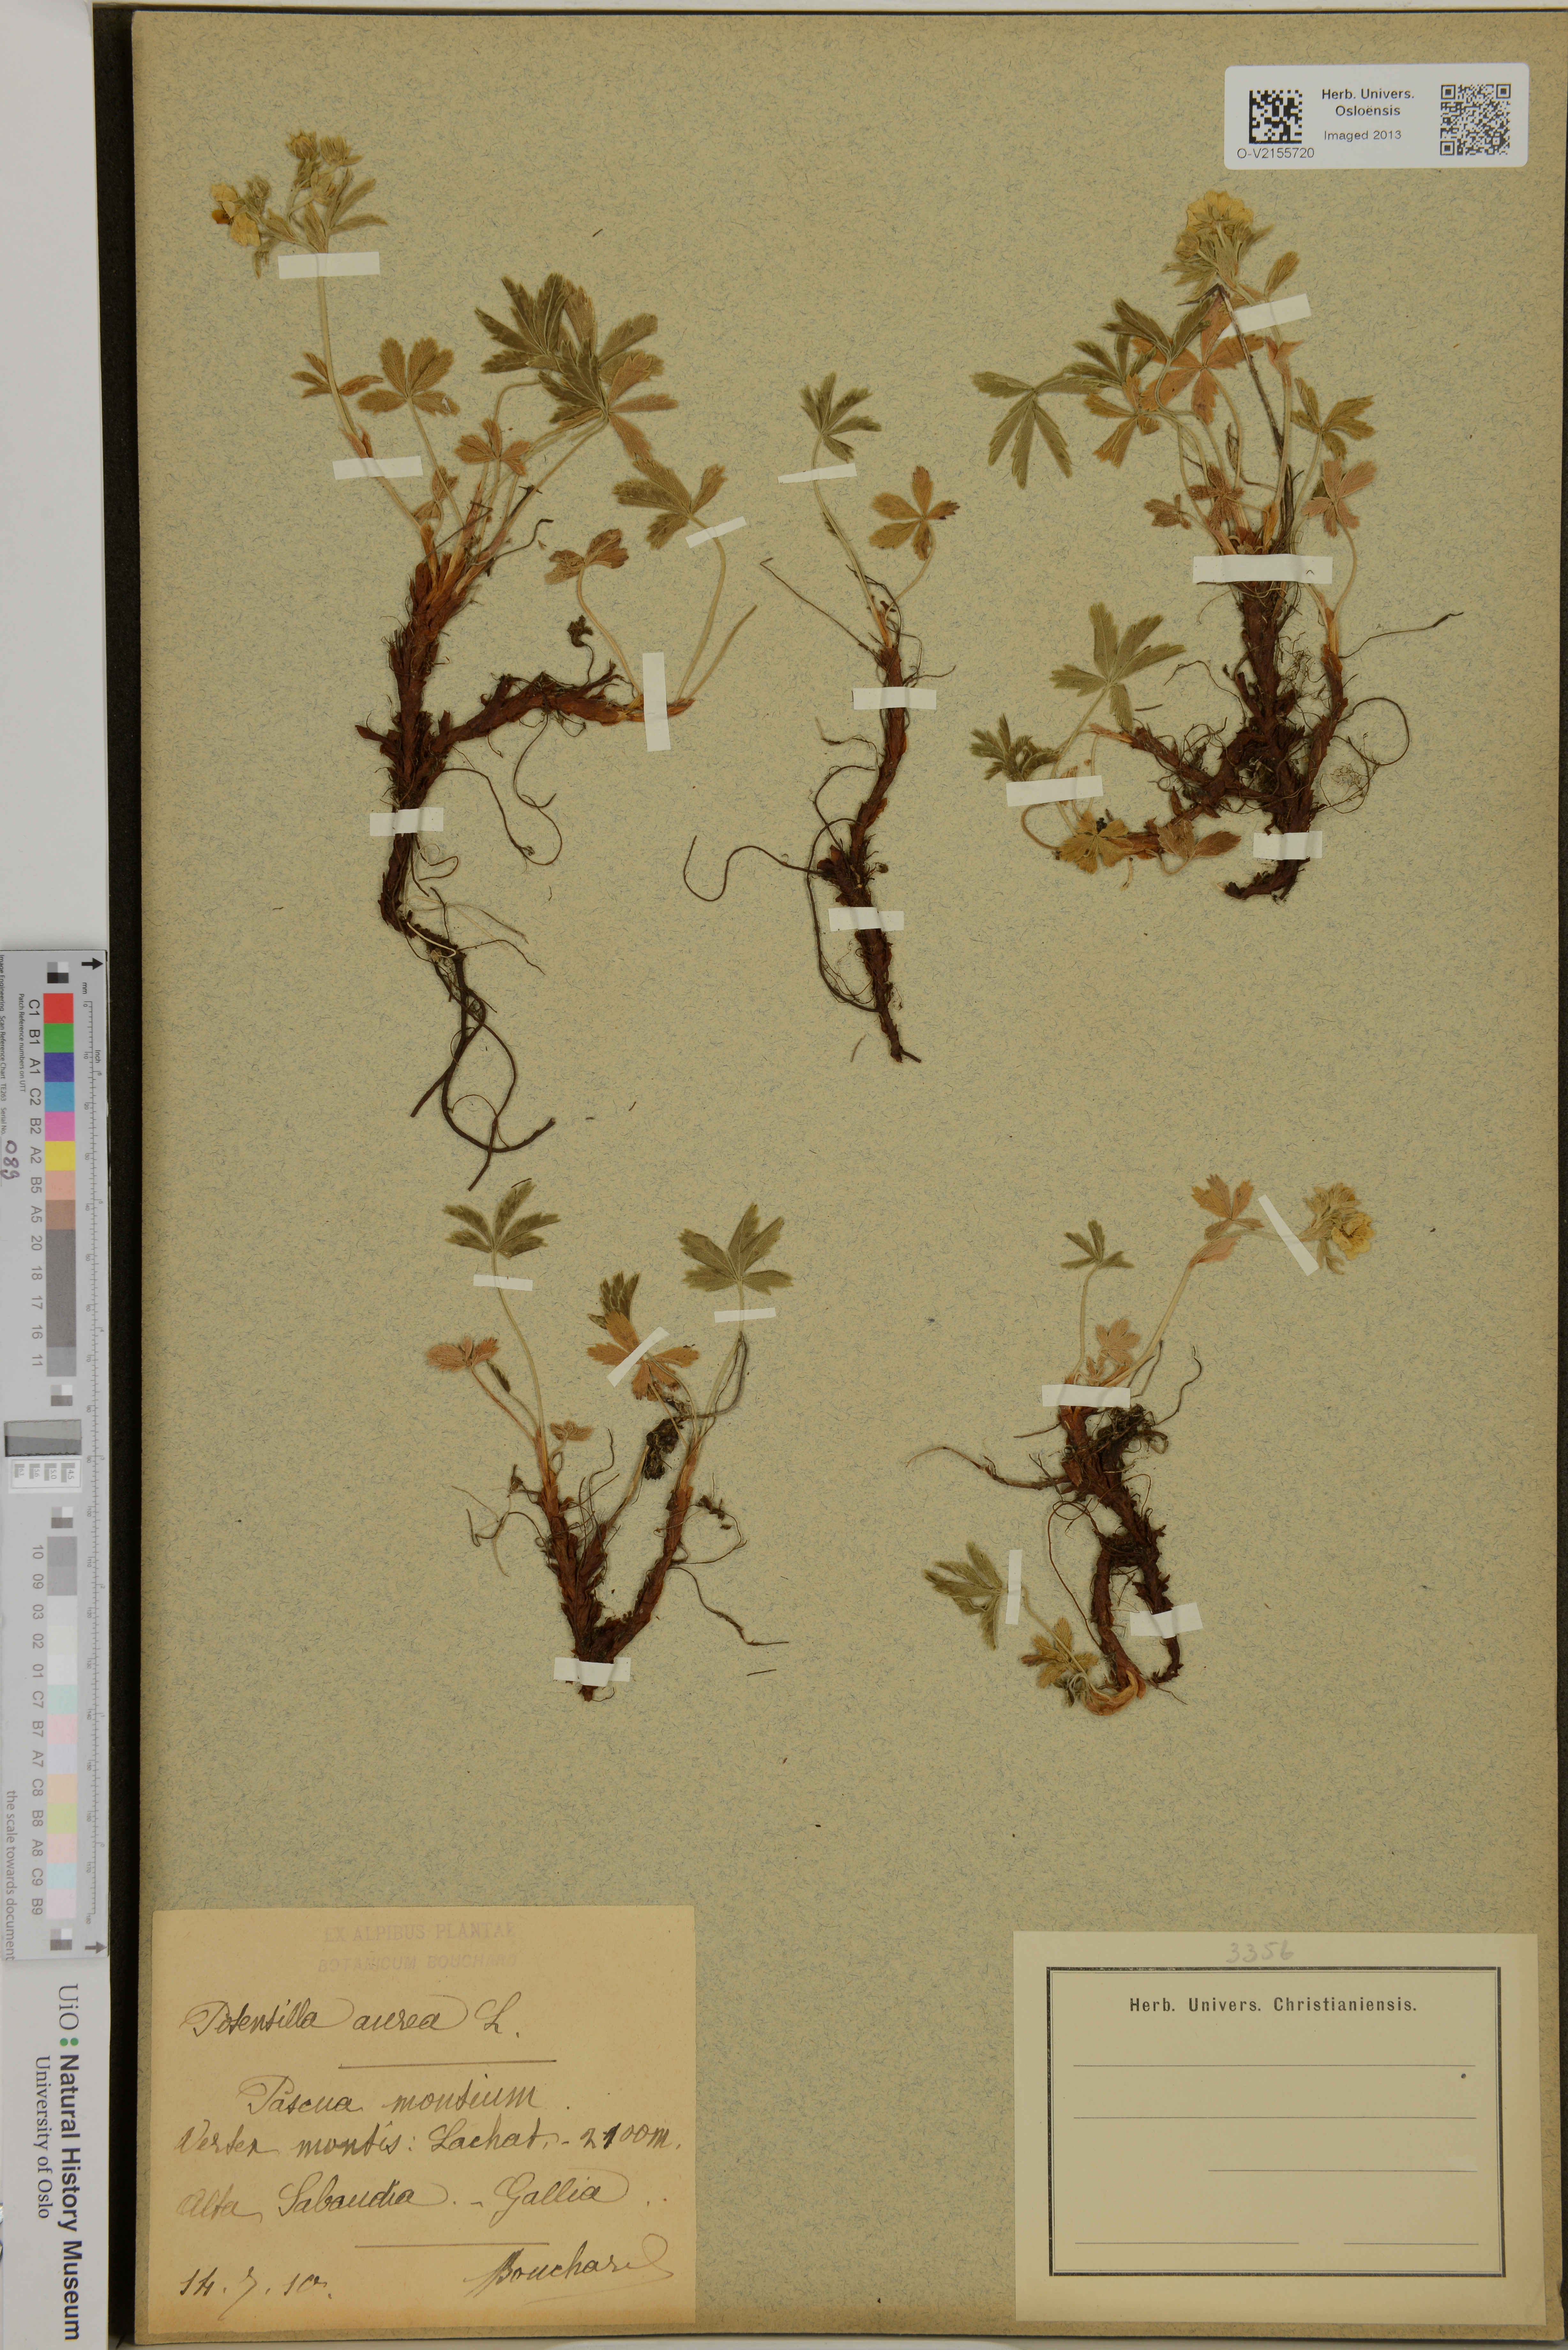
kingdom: Plantae
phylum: Tracheophyta
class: Magnoliopsida
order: Rosales
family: Rosaceae
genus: Potentilla
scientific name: Potentilla aurea
